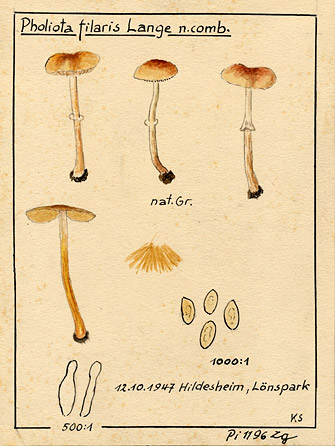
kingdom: Fungi
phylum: Basidiomycota
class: Agaricomycetes
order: Agaricales
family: Bolbitiaceae
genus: Conocybe
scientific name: Conocybe filaris
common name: Fool's conecap
